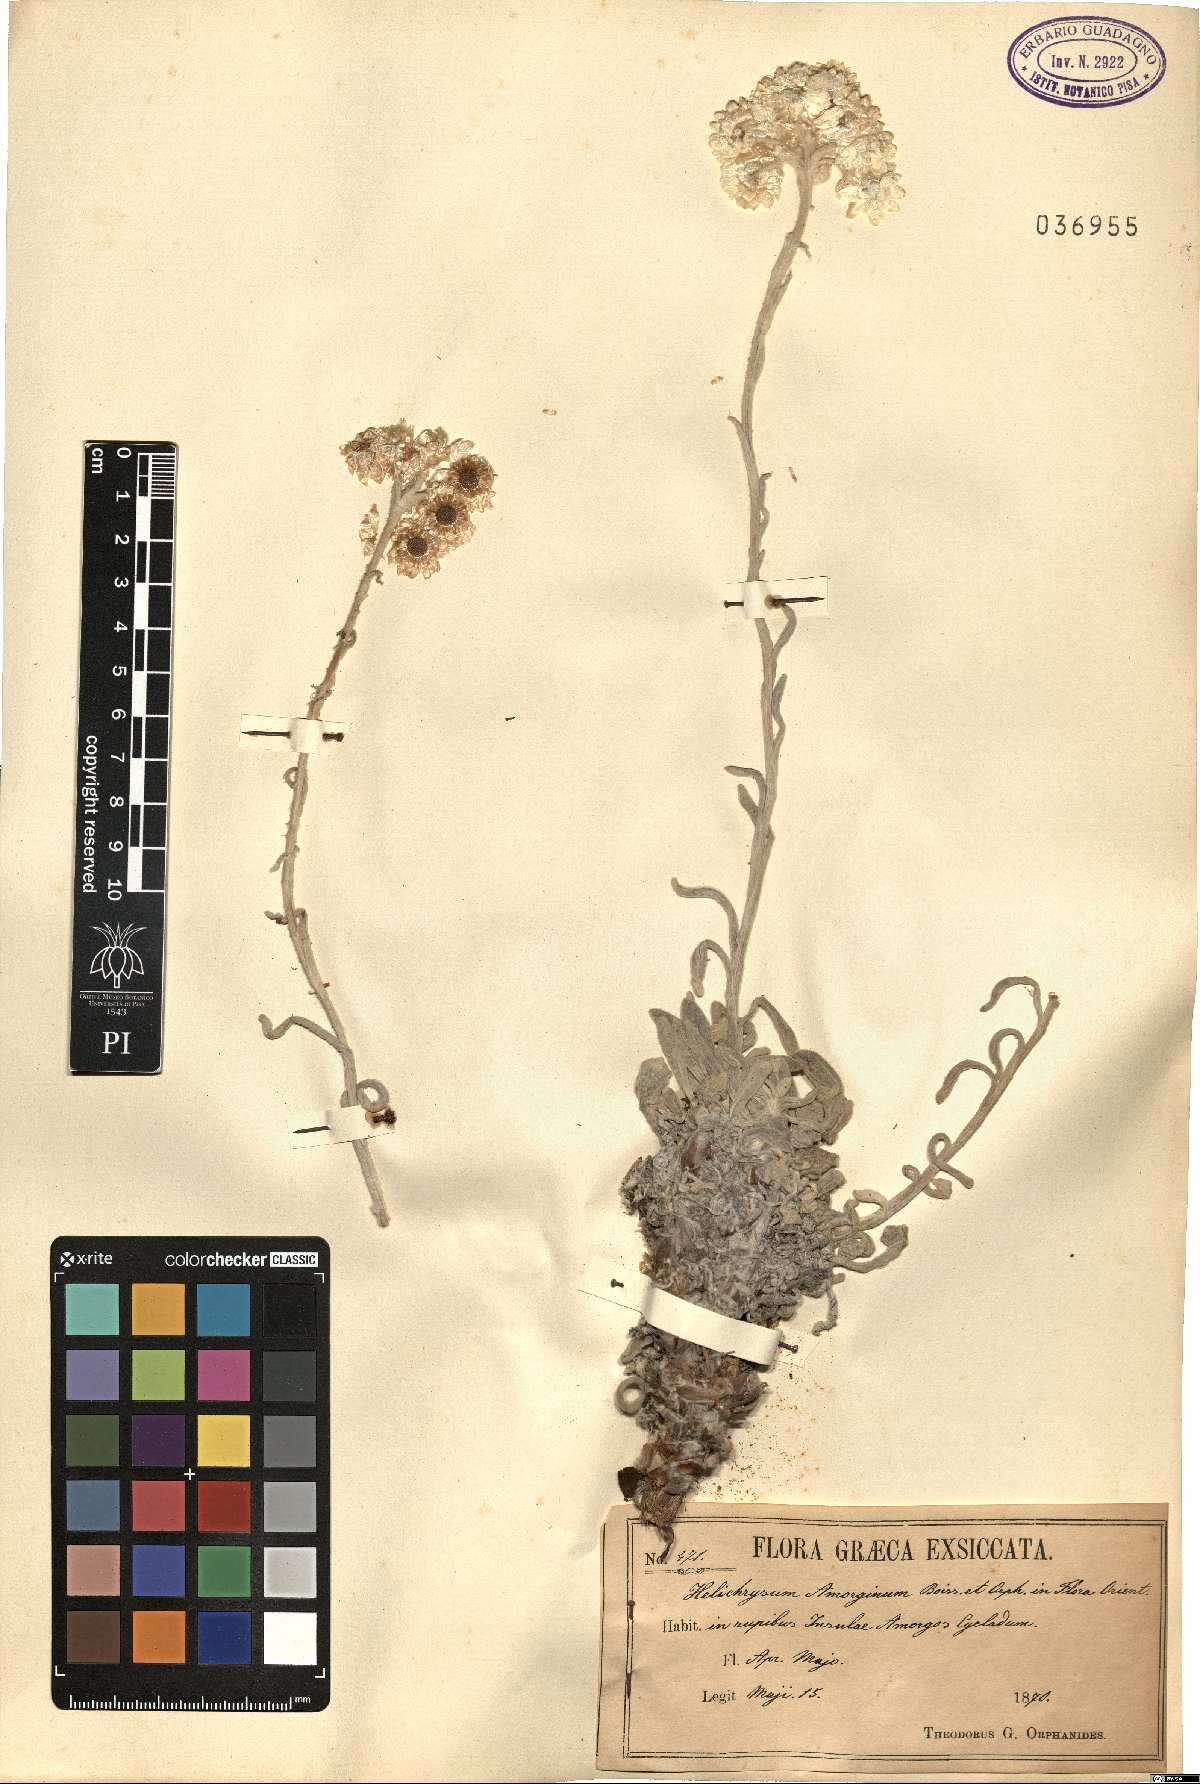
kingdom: Plantae
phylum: Tracheophyta
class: Magnoliopsida
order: Asterales
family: Asteraceae
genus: Helichrysum
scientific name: Helichrysum amorginum
